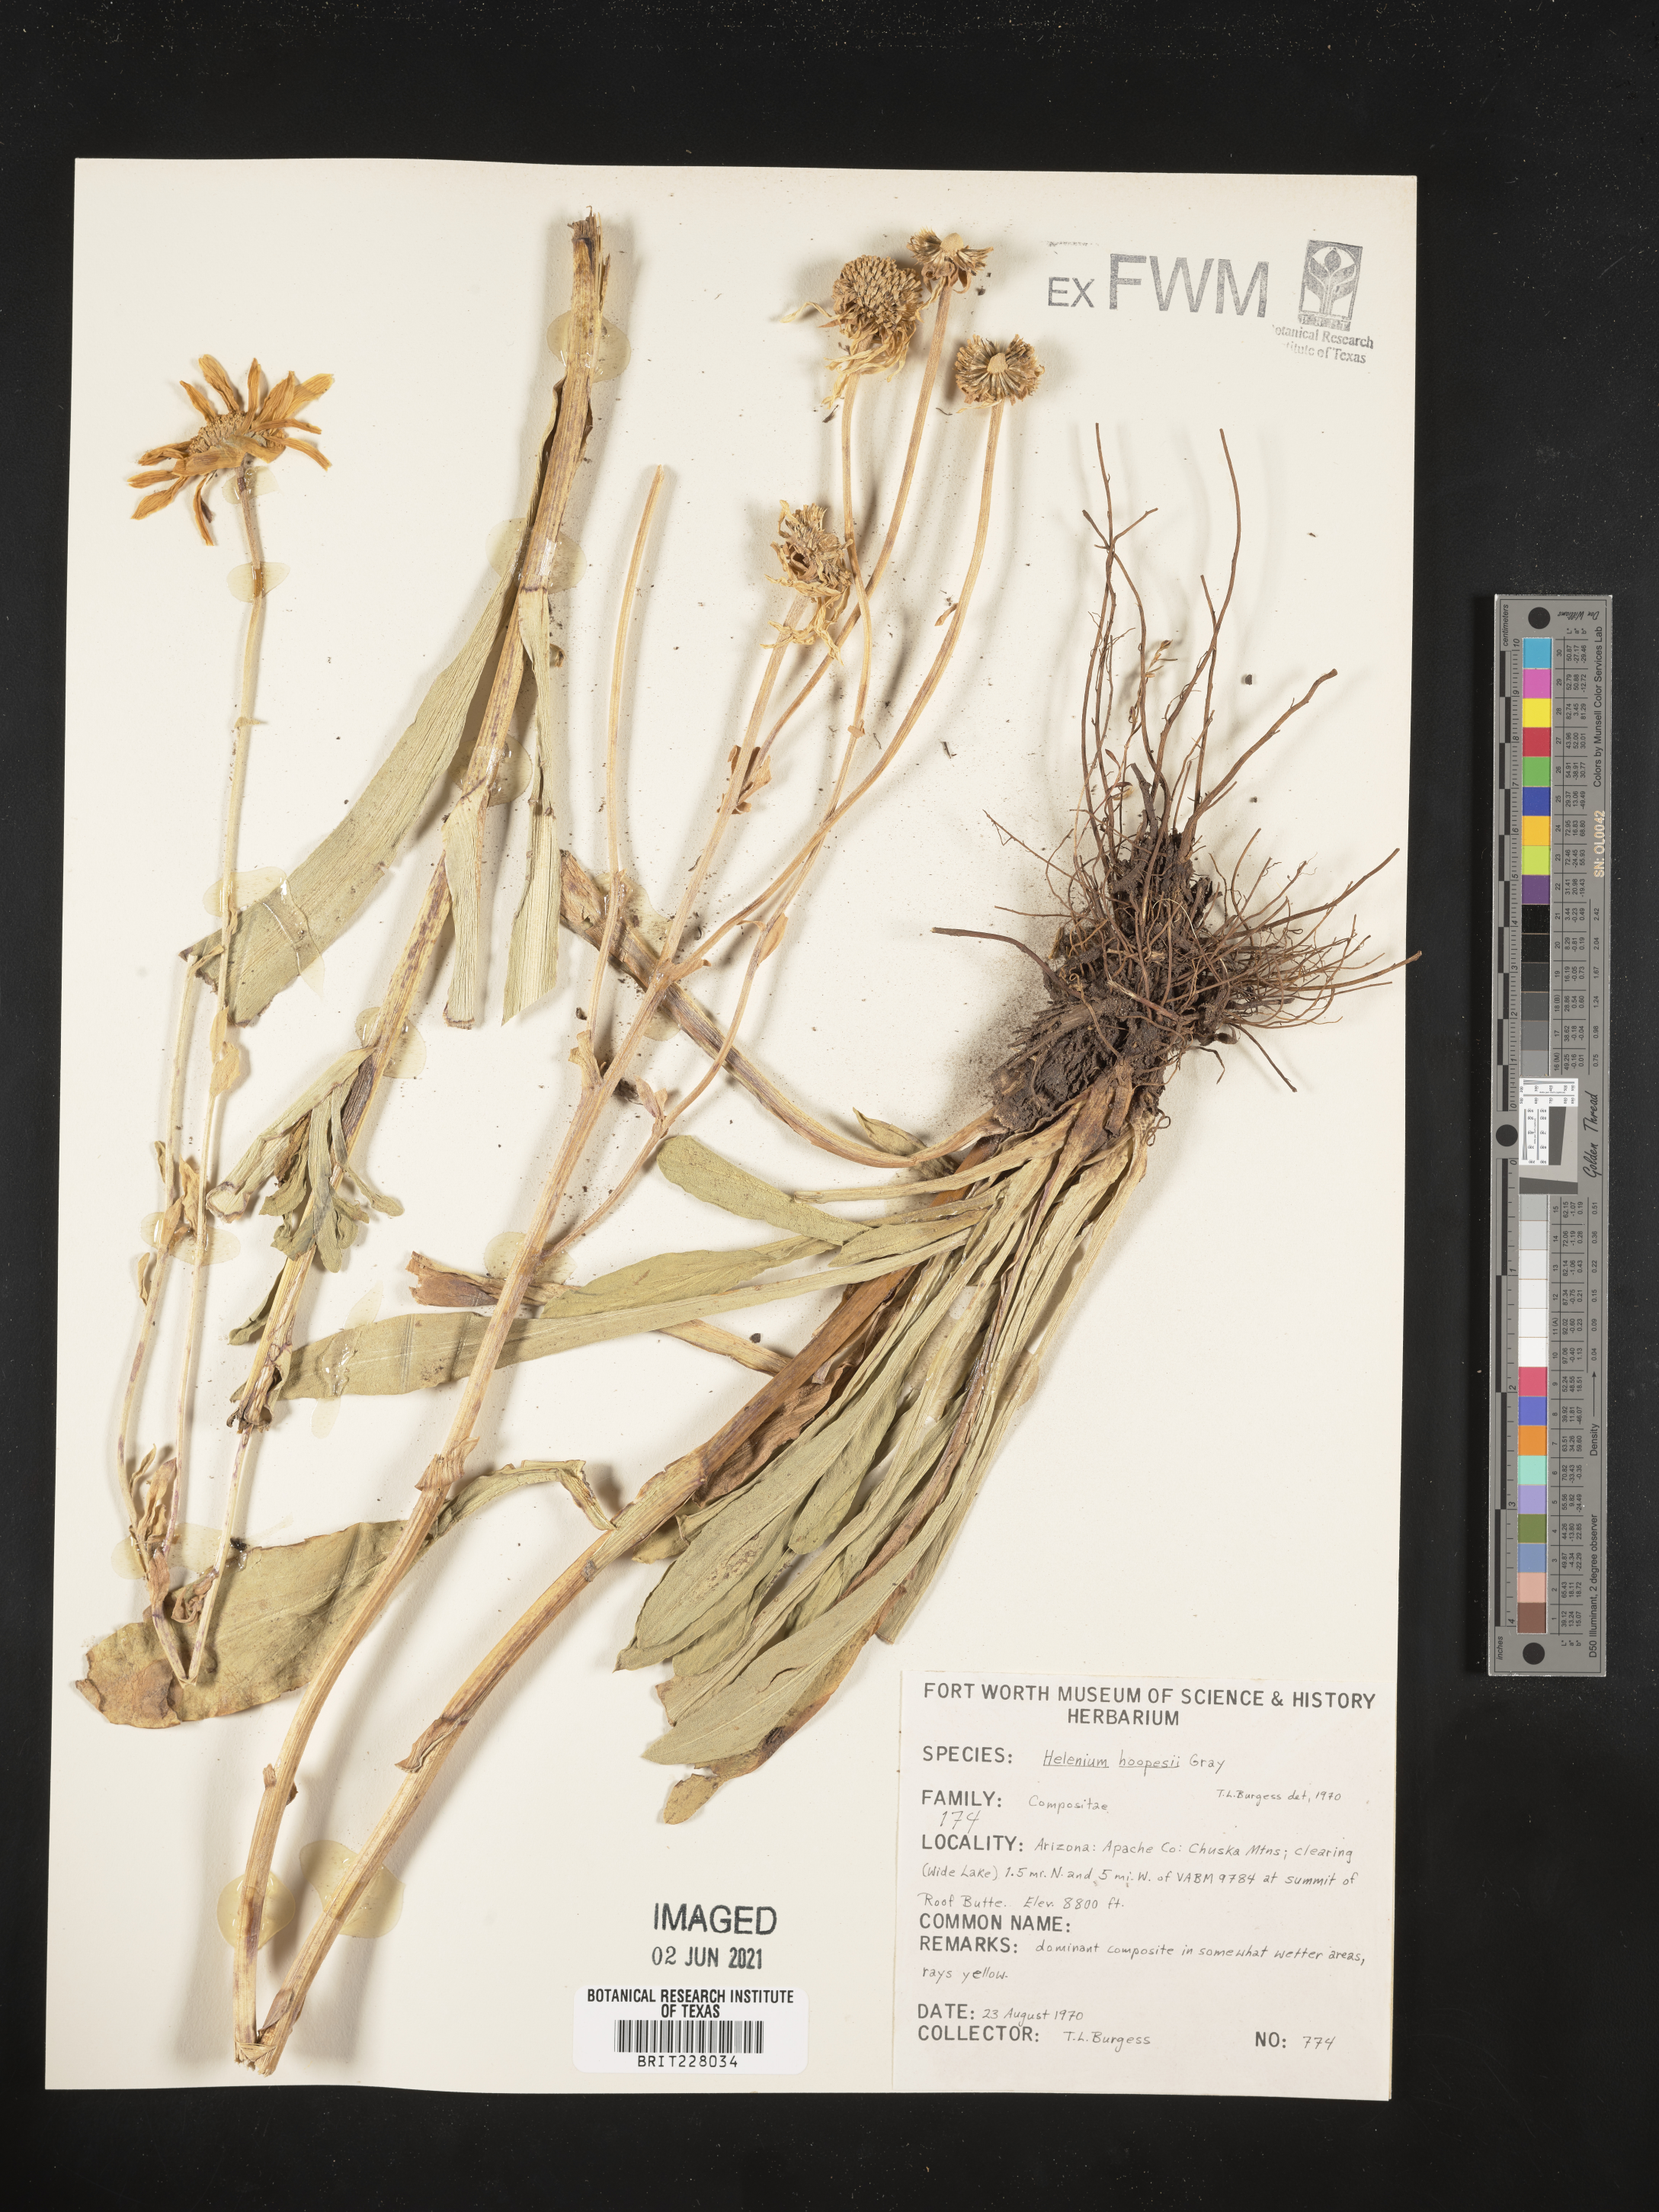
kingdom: Plantae
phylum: Tracheophyta
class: Magnoliopsida
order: Asterales
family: Asteraceae
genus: Hymenoxys
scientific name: Hymenoxys hoopesii
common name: Orange-sneezeweed
